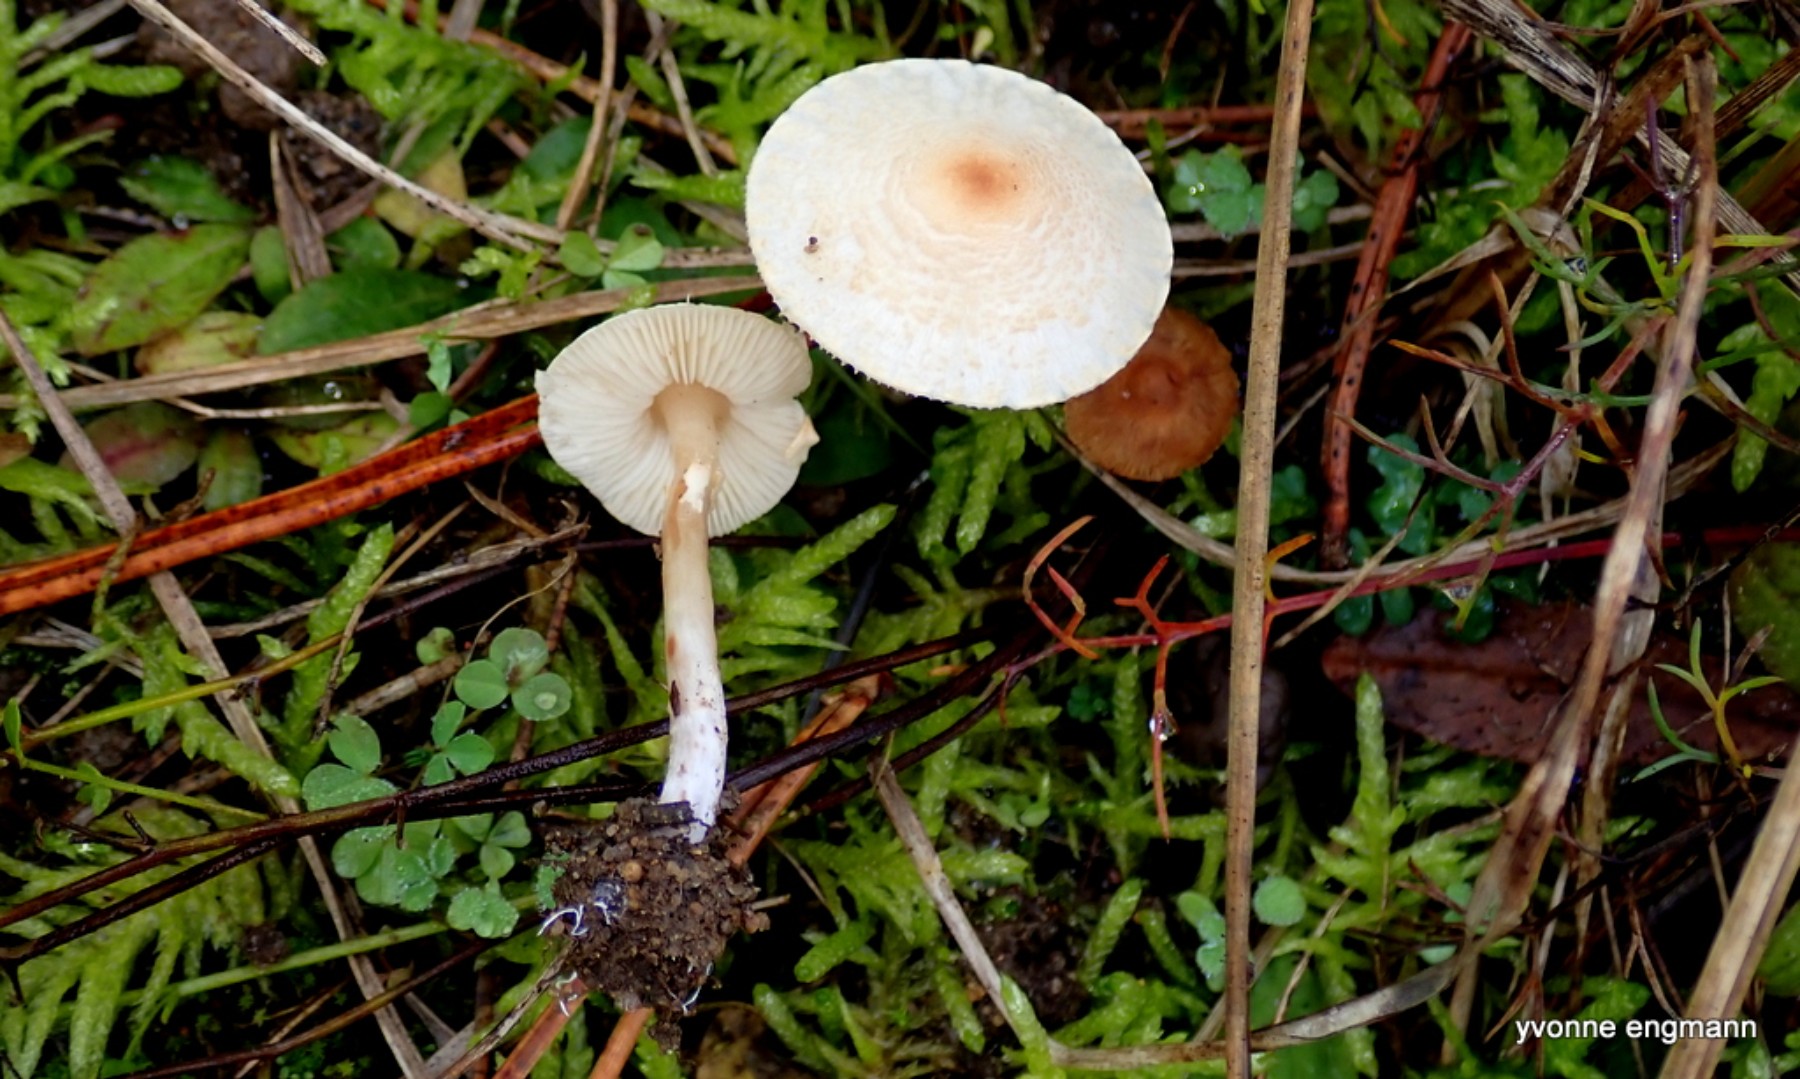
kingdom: Fungi
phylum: Basidiomycota
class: Agaricomycetes
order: Agaricales
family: Agaricaceae
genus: Lepiota
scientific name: Lepiota cristata
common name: stinkende parasolhat
